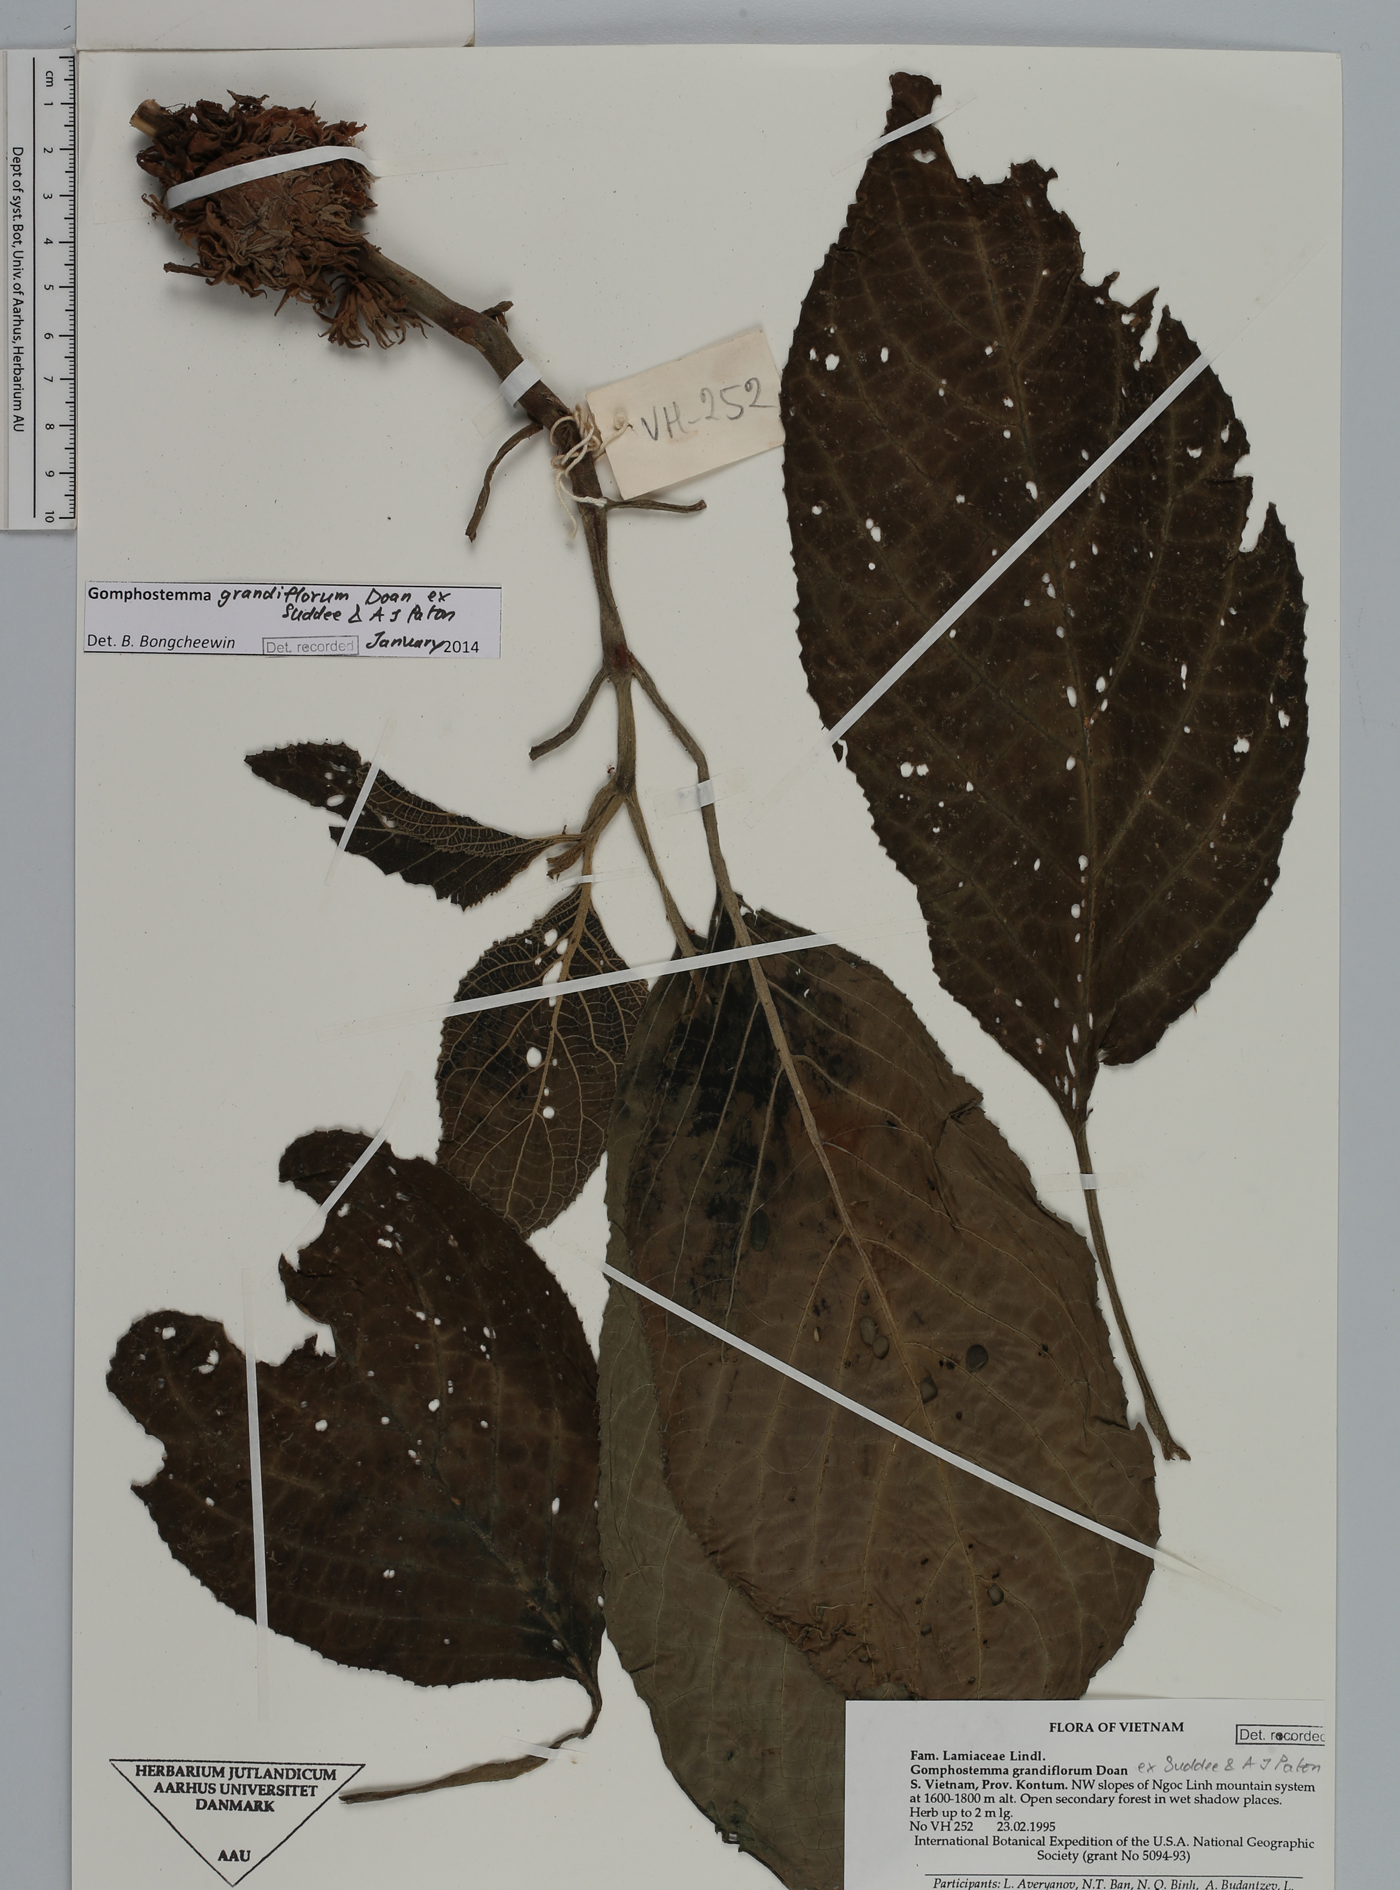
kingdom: Plantae
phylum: Tracheophyta
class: Magnoliopsida
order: Lamiales
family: Lamiaceae
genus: Gomphostemma
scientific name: Gomphostemma grandiflorum
